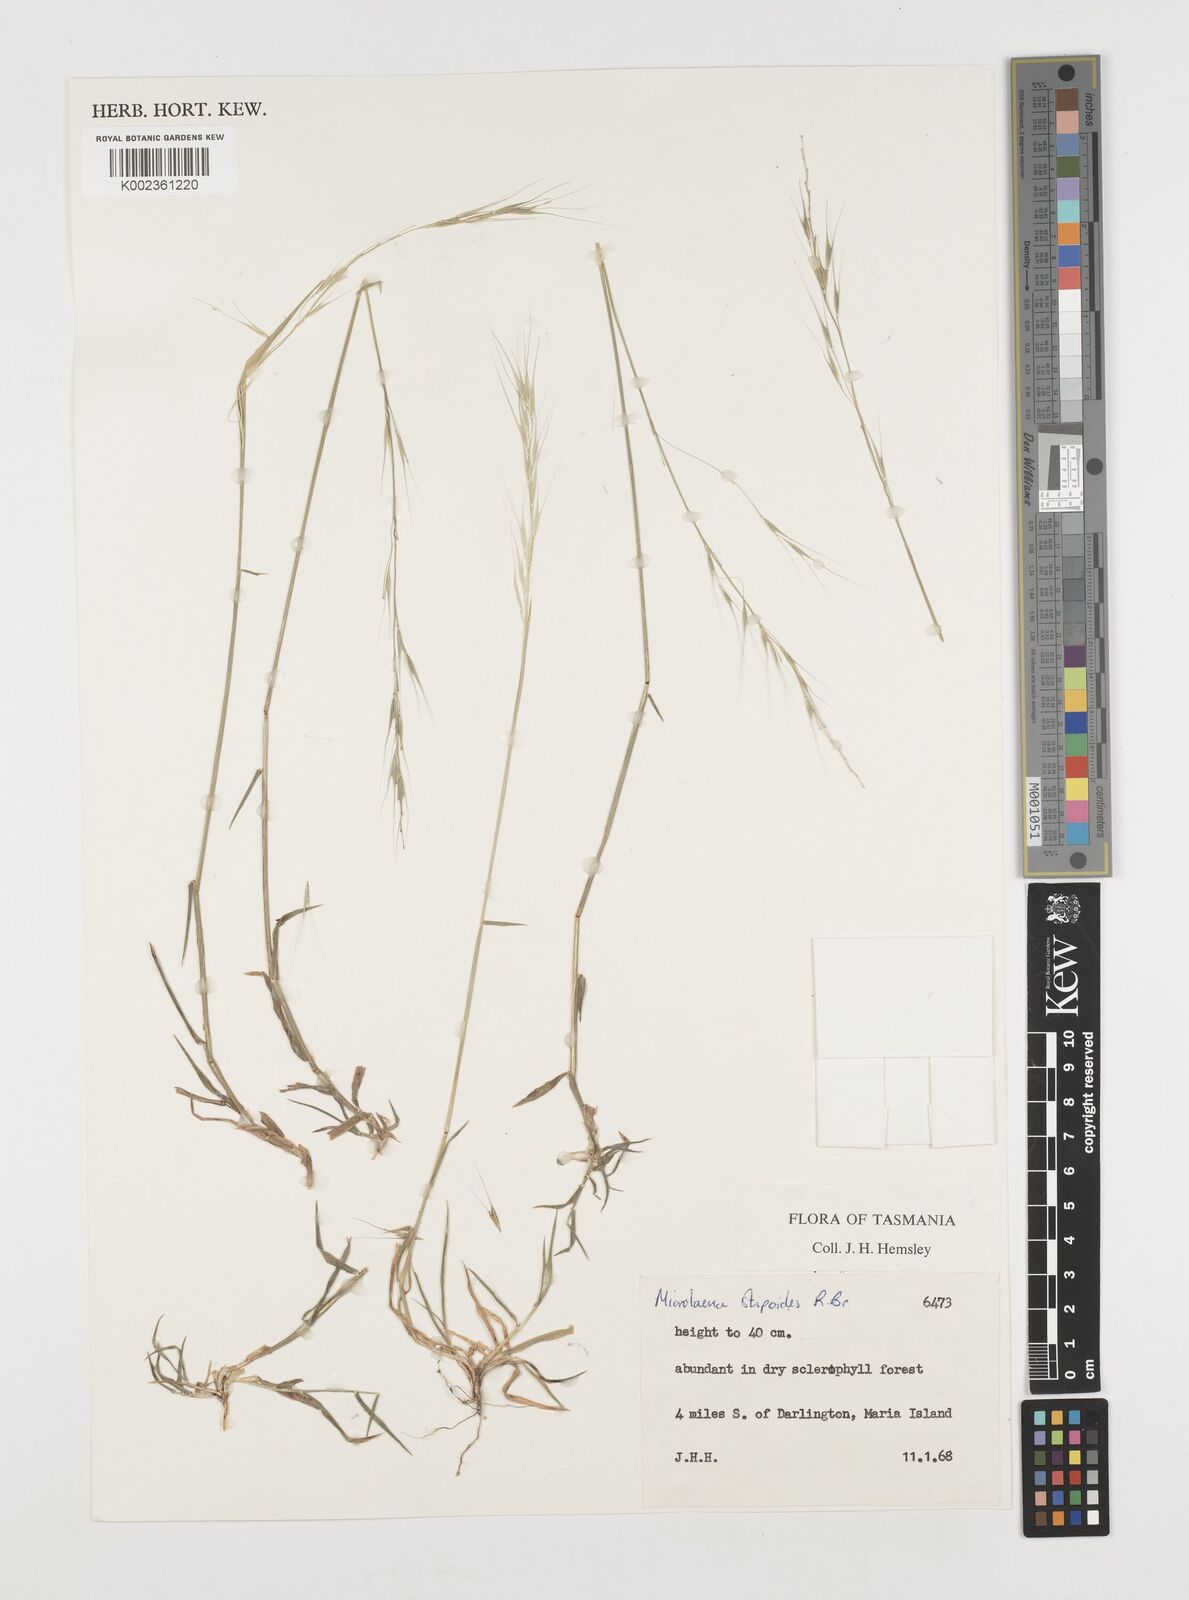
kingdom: Plantae
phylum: Tracheophyta
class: Liliopsida
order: Poales
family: Poaceae
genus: Microlaena
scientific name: Microlaena stipoides
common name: Meadow ricegrass
